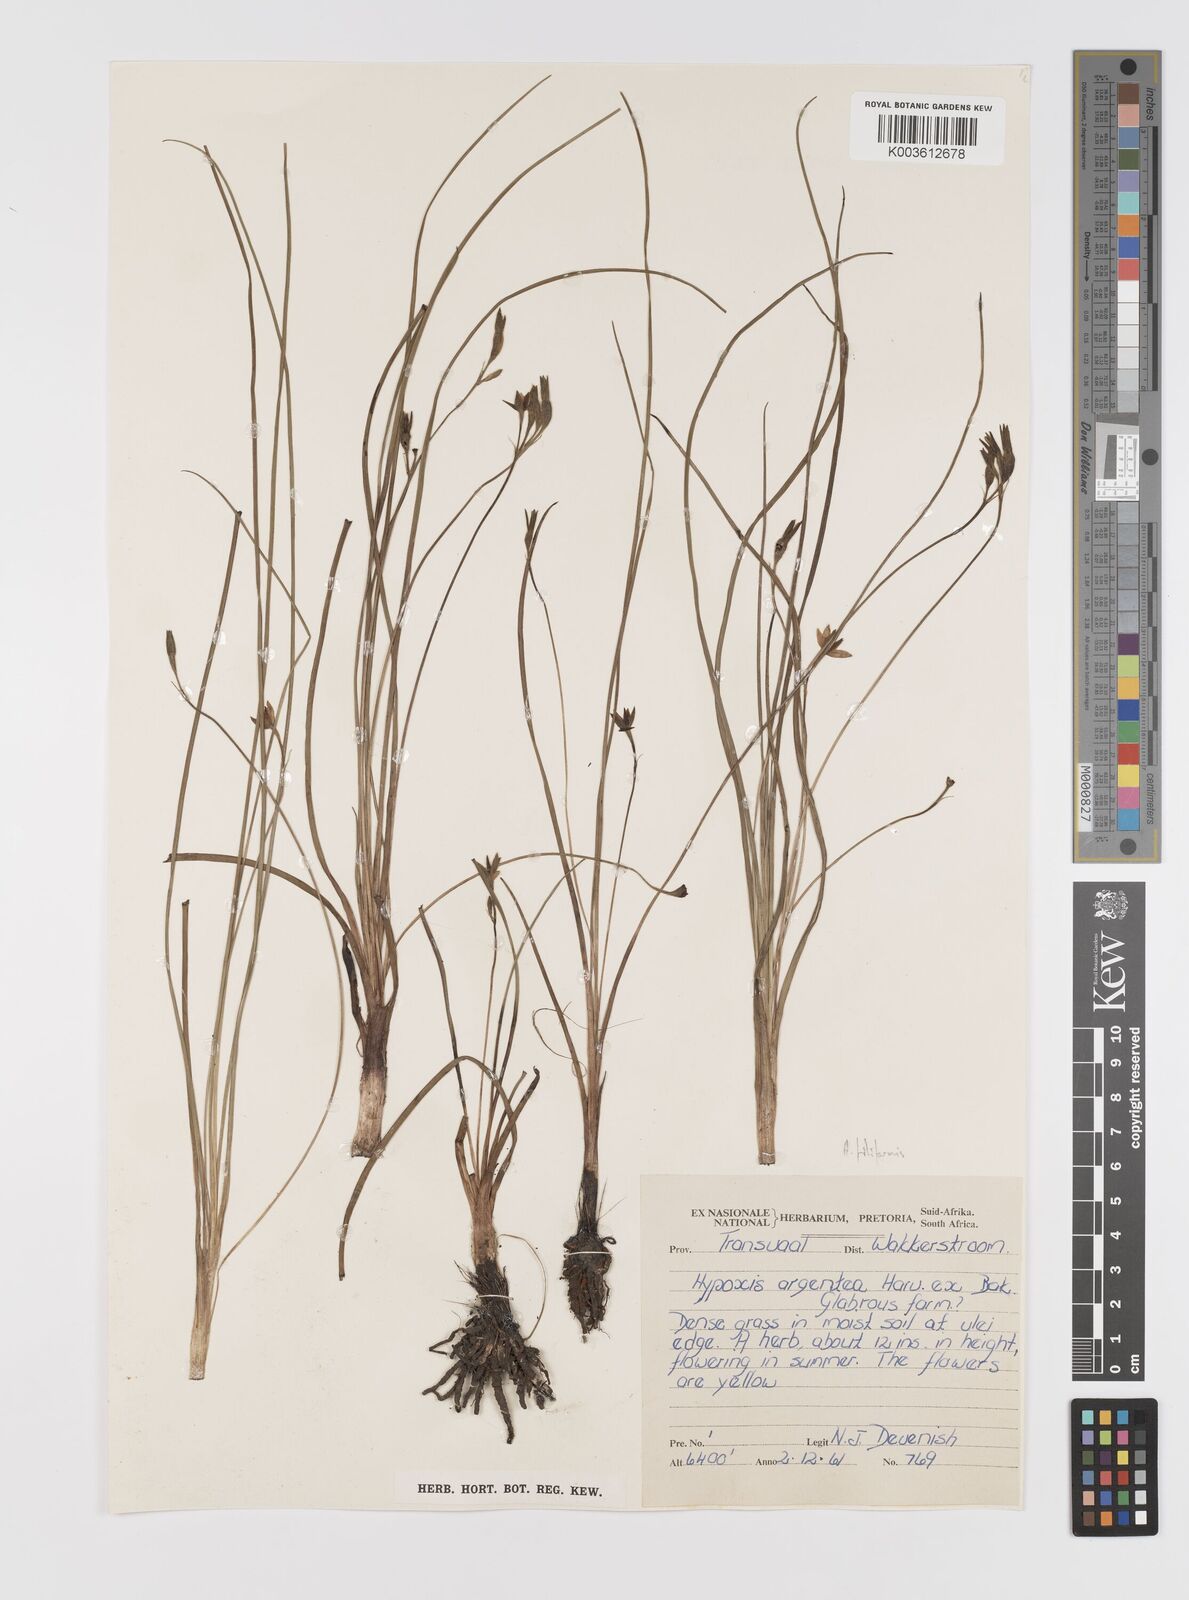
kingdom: Plantae
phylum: Tracheophyta
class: Liliopsida
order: Asparagales
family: Hypoxidaceae
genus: Hypoxis
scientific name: Hypoxis filiformis
